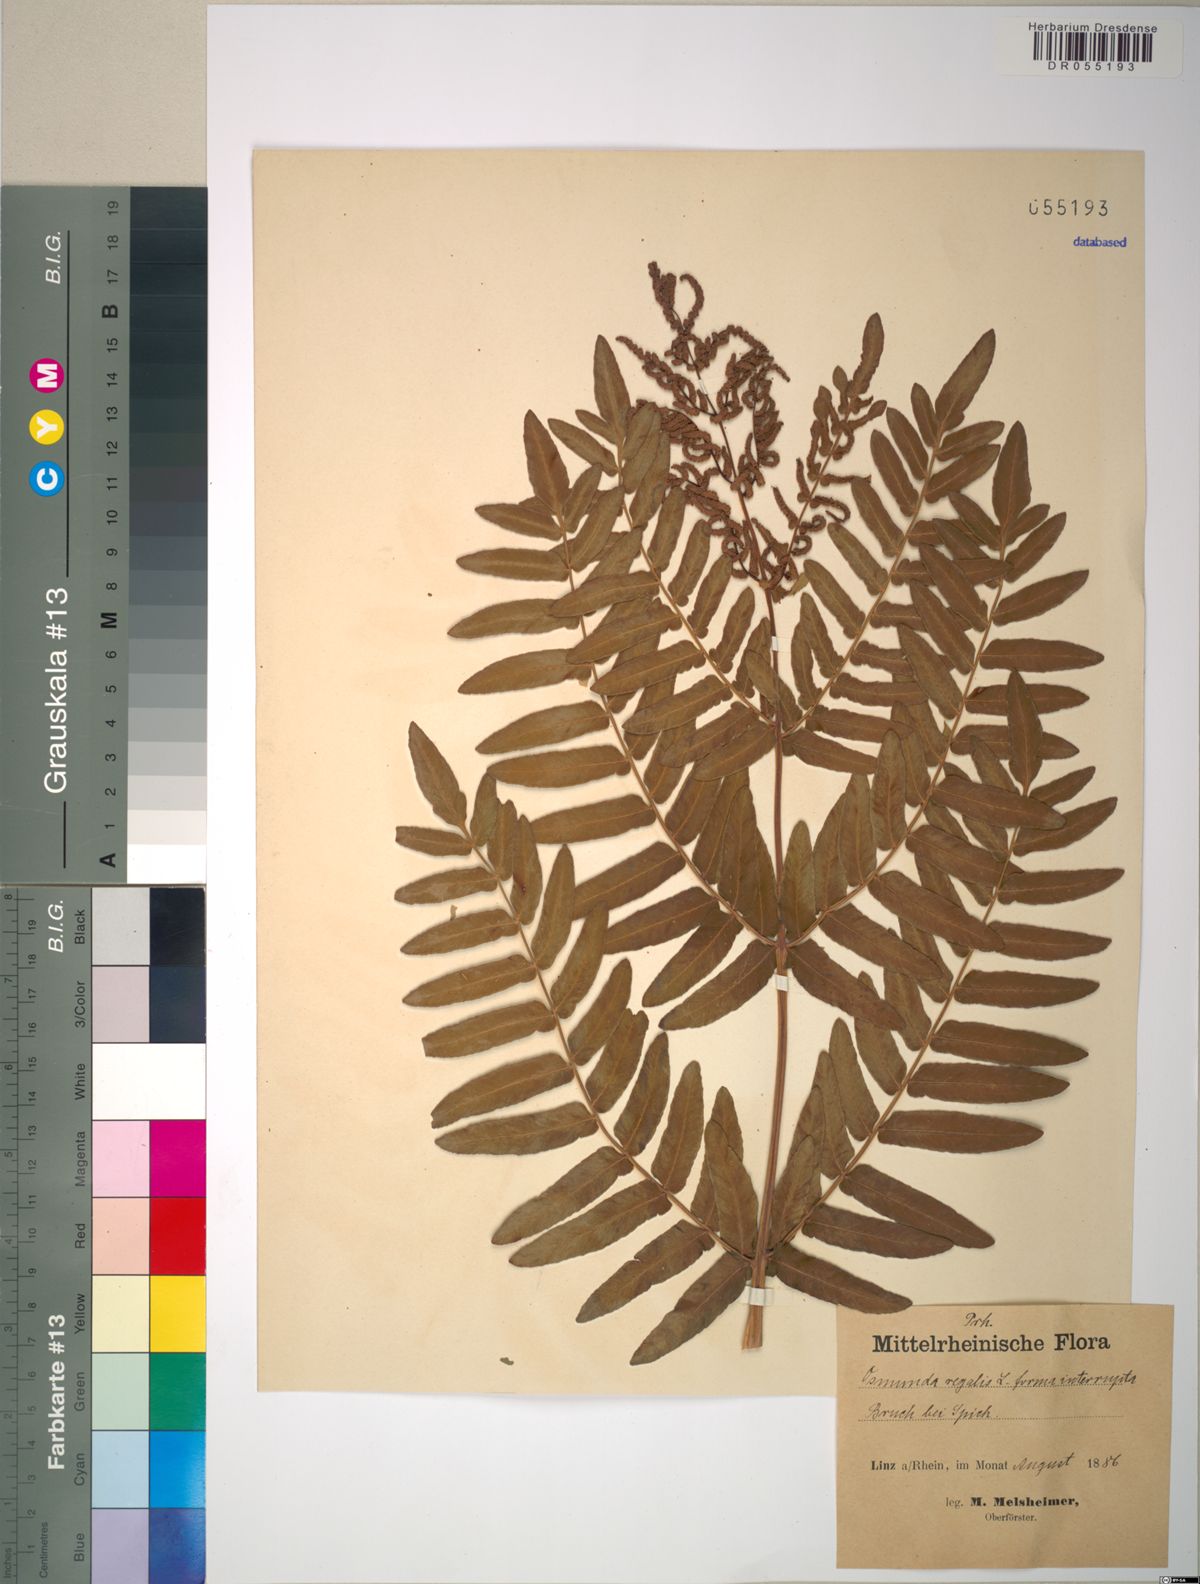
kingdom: Plantae
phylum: Tracheophyta
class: Polypodiopsida
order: Osmundales
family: Osmundaceae
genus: Osmunda
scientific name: Osmunda regalis
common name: Royal fern
